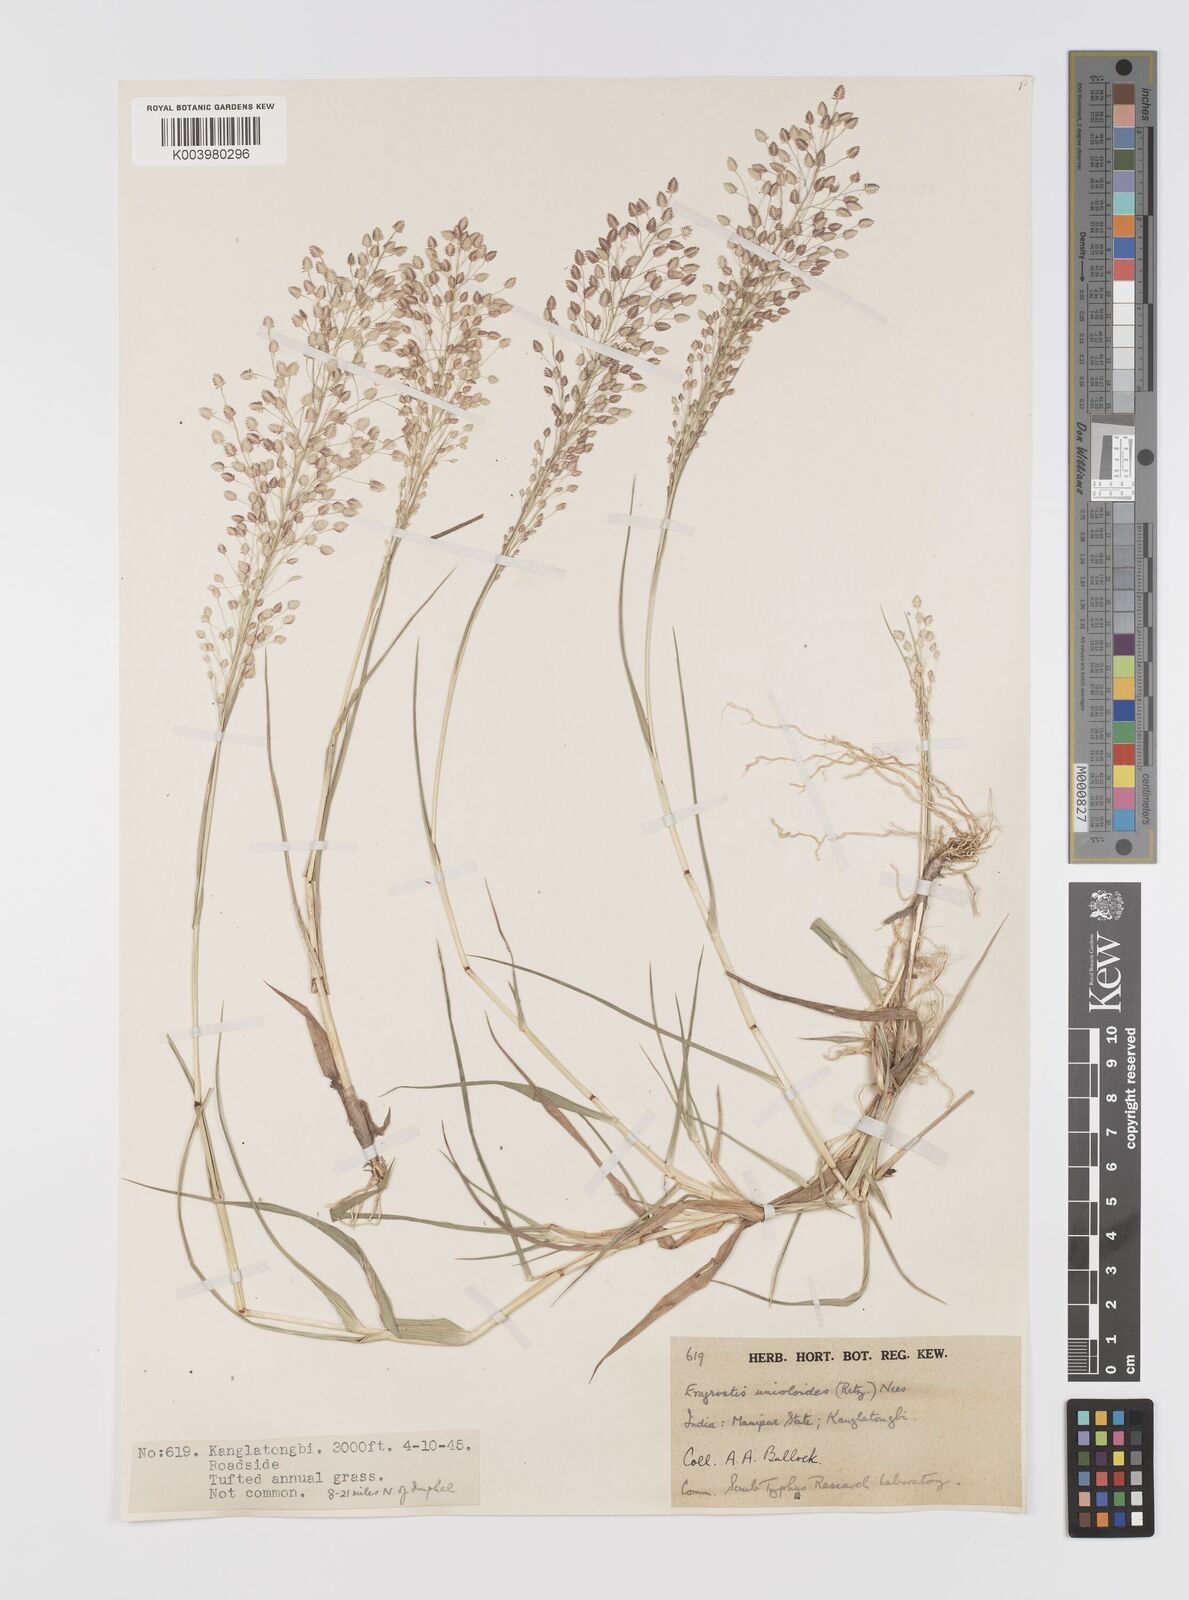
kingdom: Plantae
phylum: Tracheophyta
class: Liliopsida
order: Poales
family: Poaceae
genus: Eragrostis
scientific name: Eragrostis unioloides
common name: Chinese lovegrass
